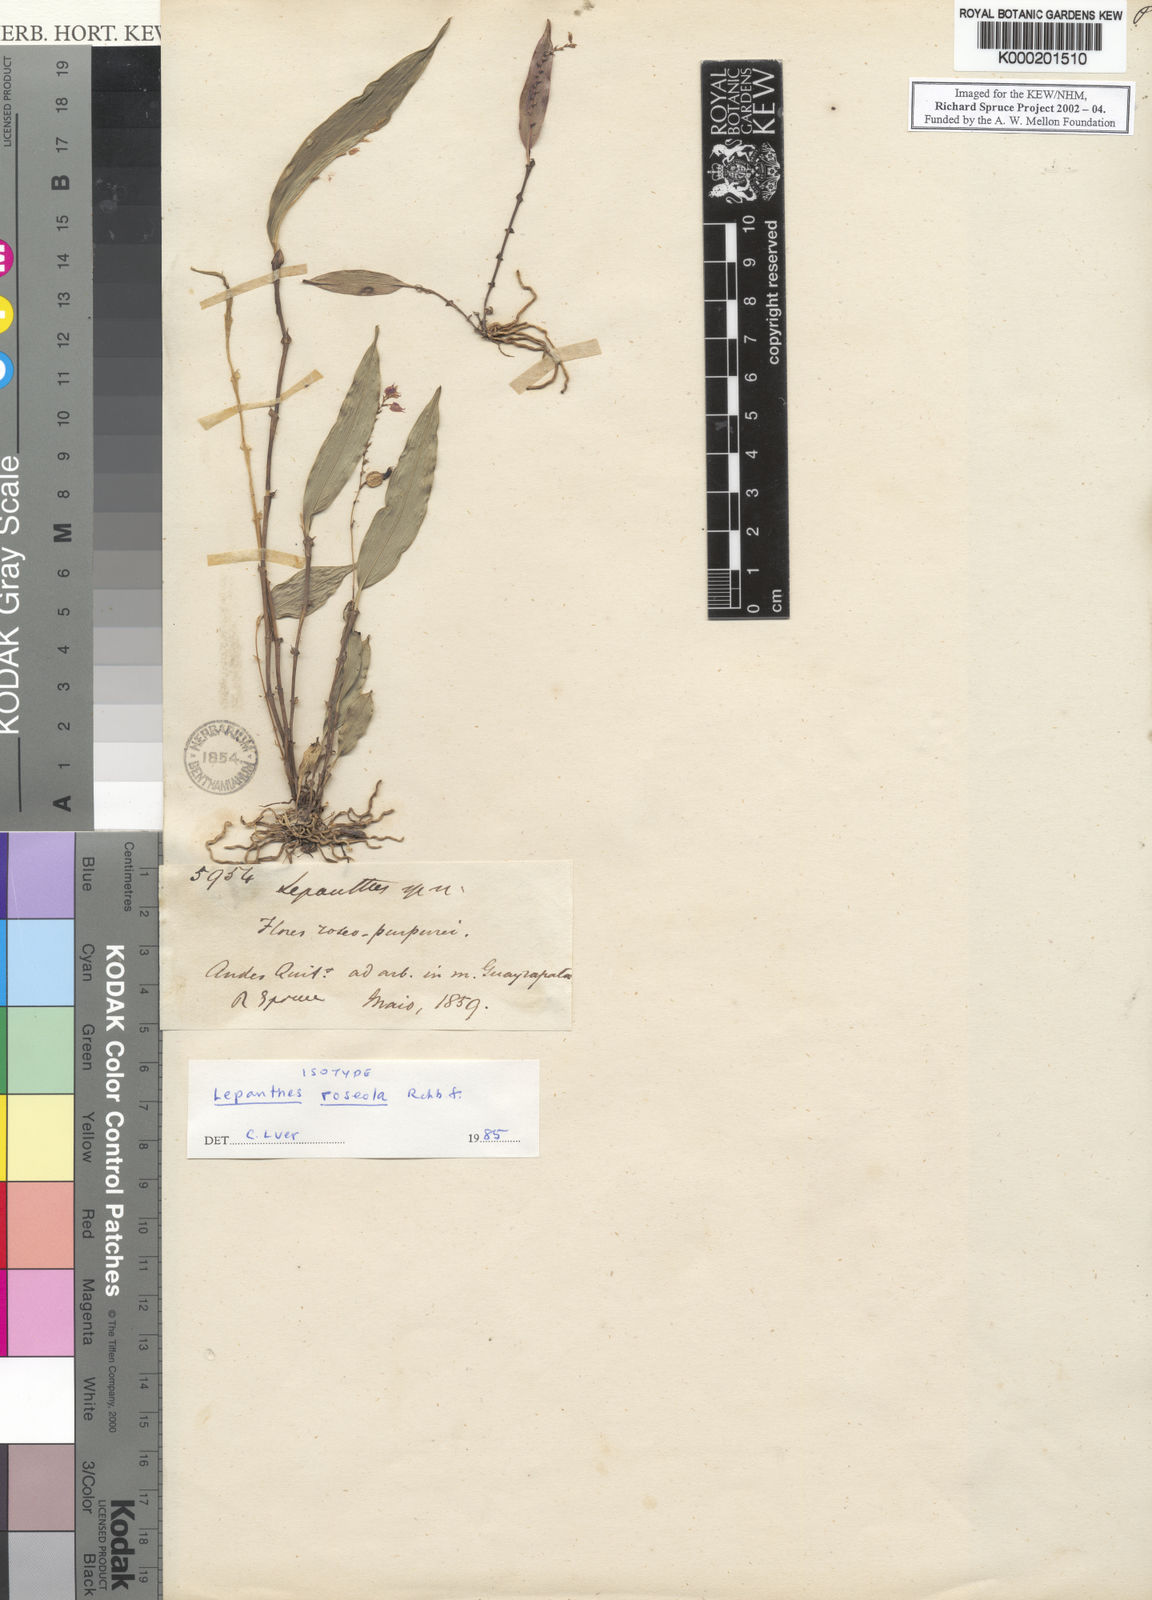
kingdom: Plantae
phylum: Tracheophyta
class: Liliopsida
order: Asparagales
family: Orchidaceae
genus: Lepanthes
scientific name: Lepanthes monoptera
